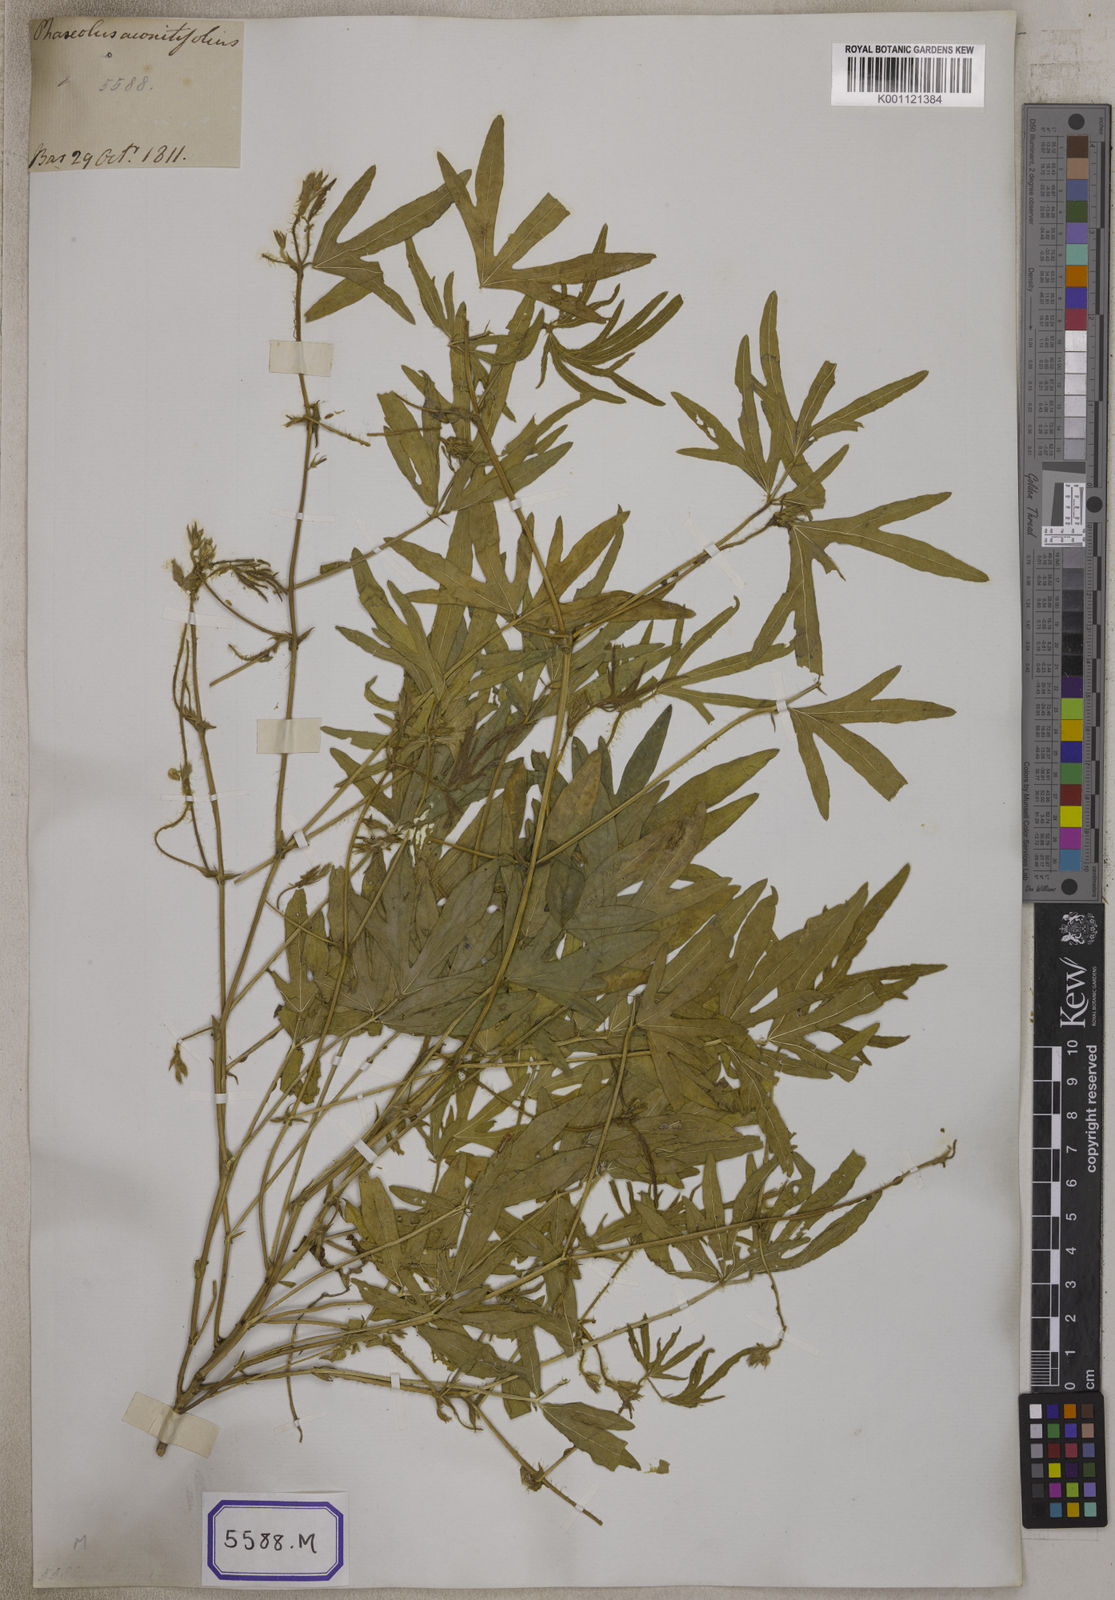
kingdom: Plantae
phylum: Tracheophyta
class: Magnoliopsida
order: Fabales
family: Fabaceae
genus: Phaseolus
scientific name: Phaseolus
